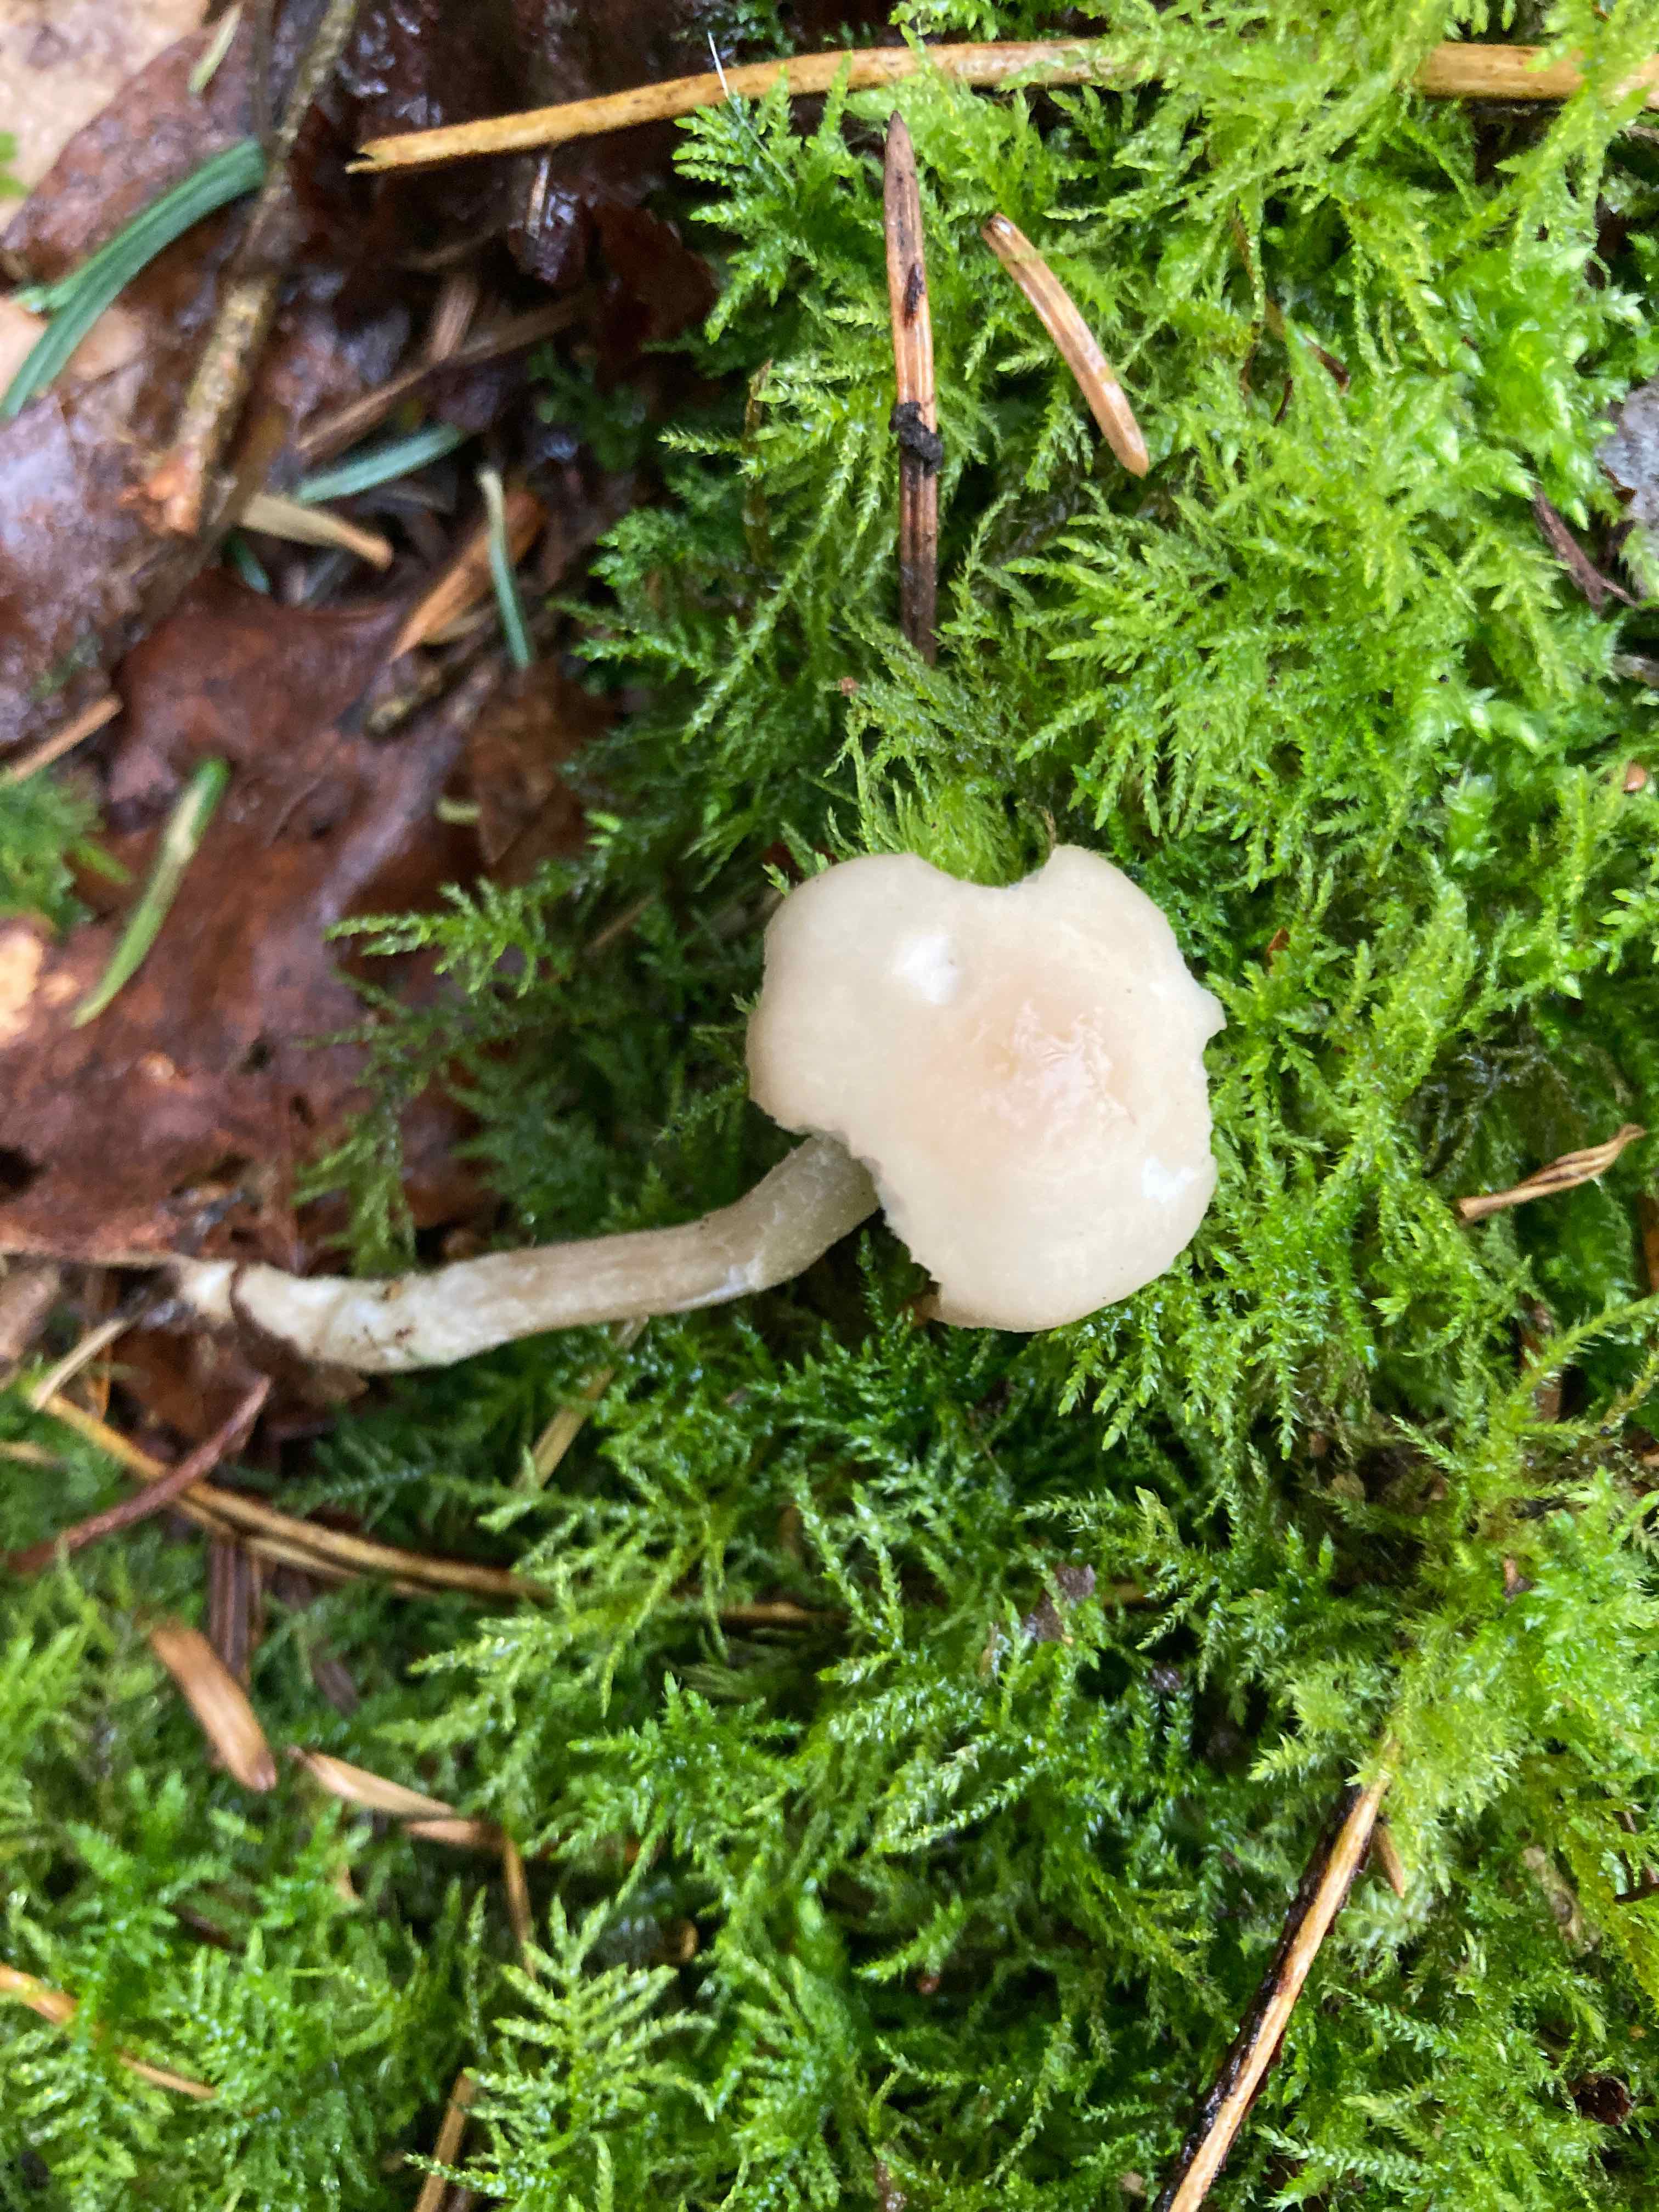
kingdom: Fungi
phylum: Basidiomycota
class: Agaricomycetes
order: Agaricales
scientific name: Agaricales
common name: champignonordenen
